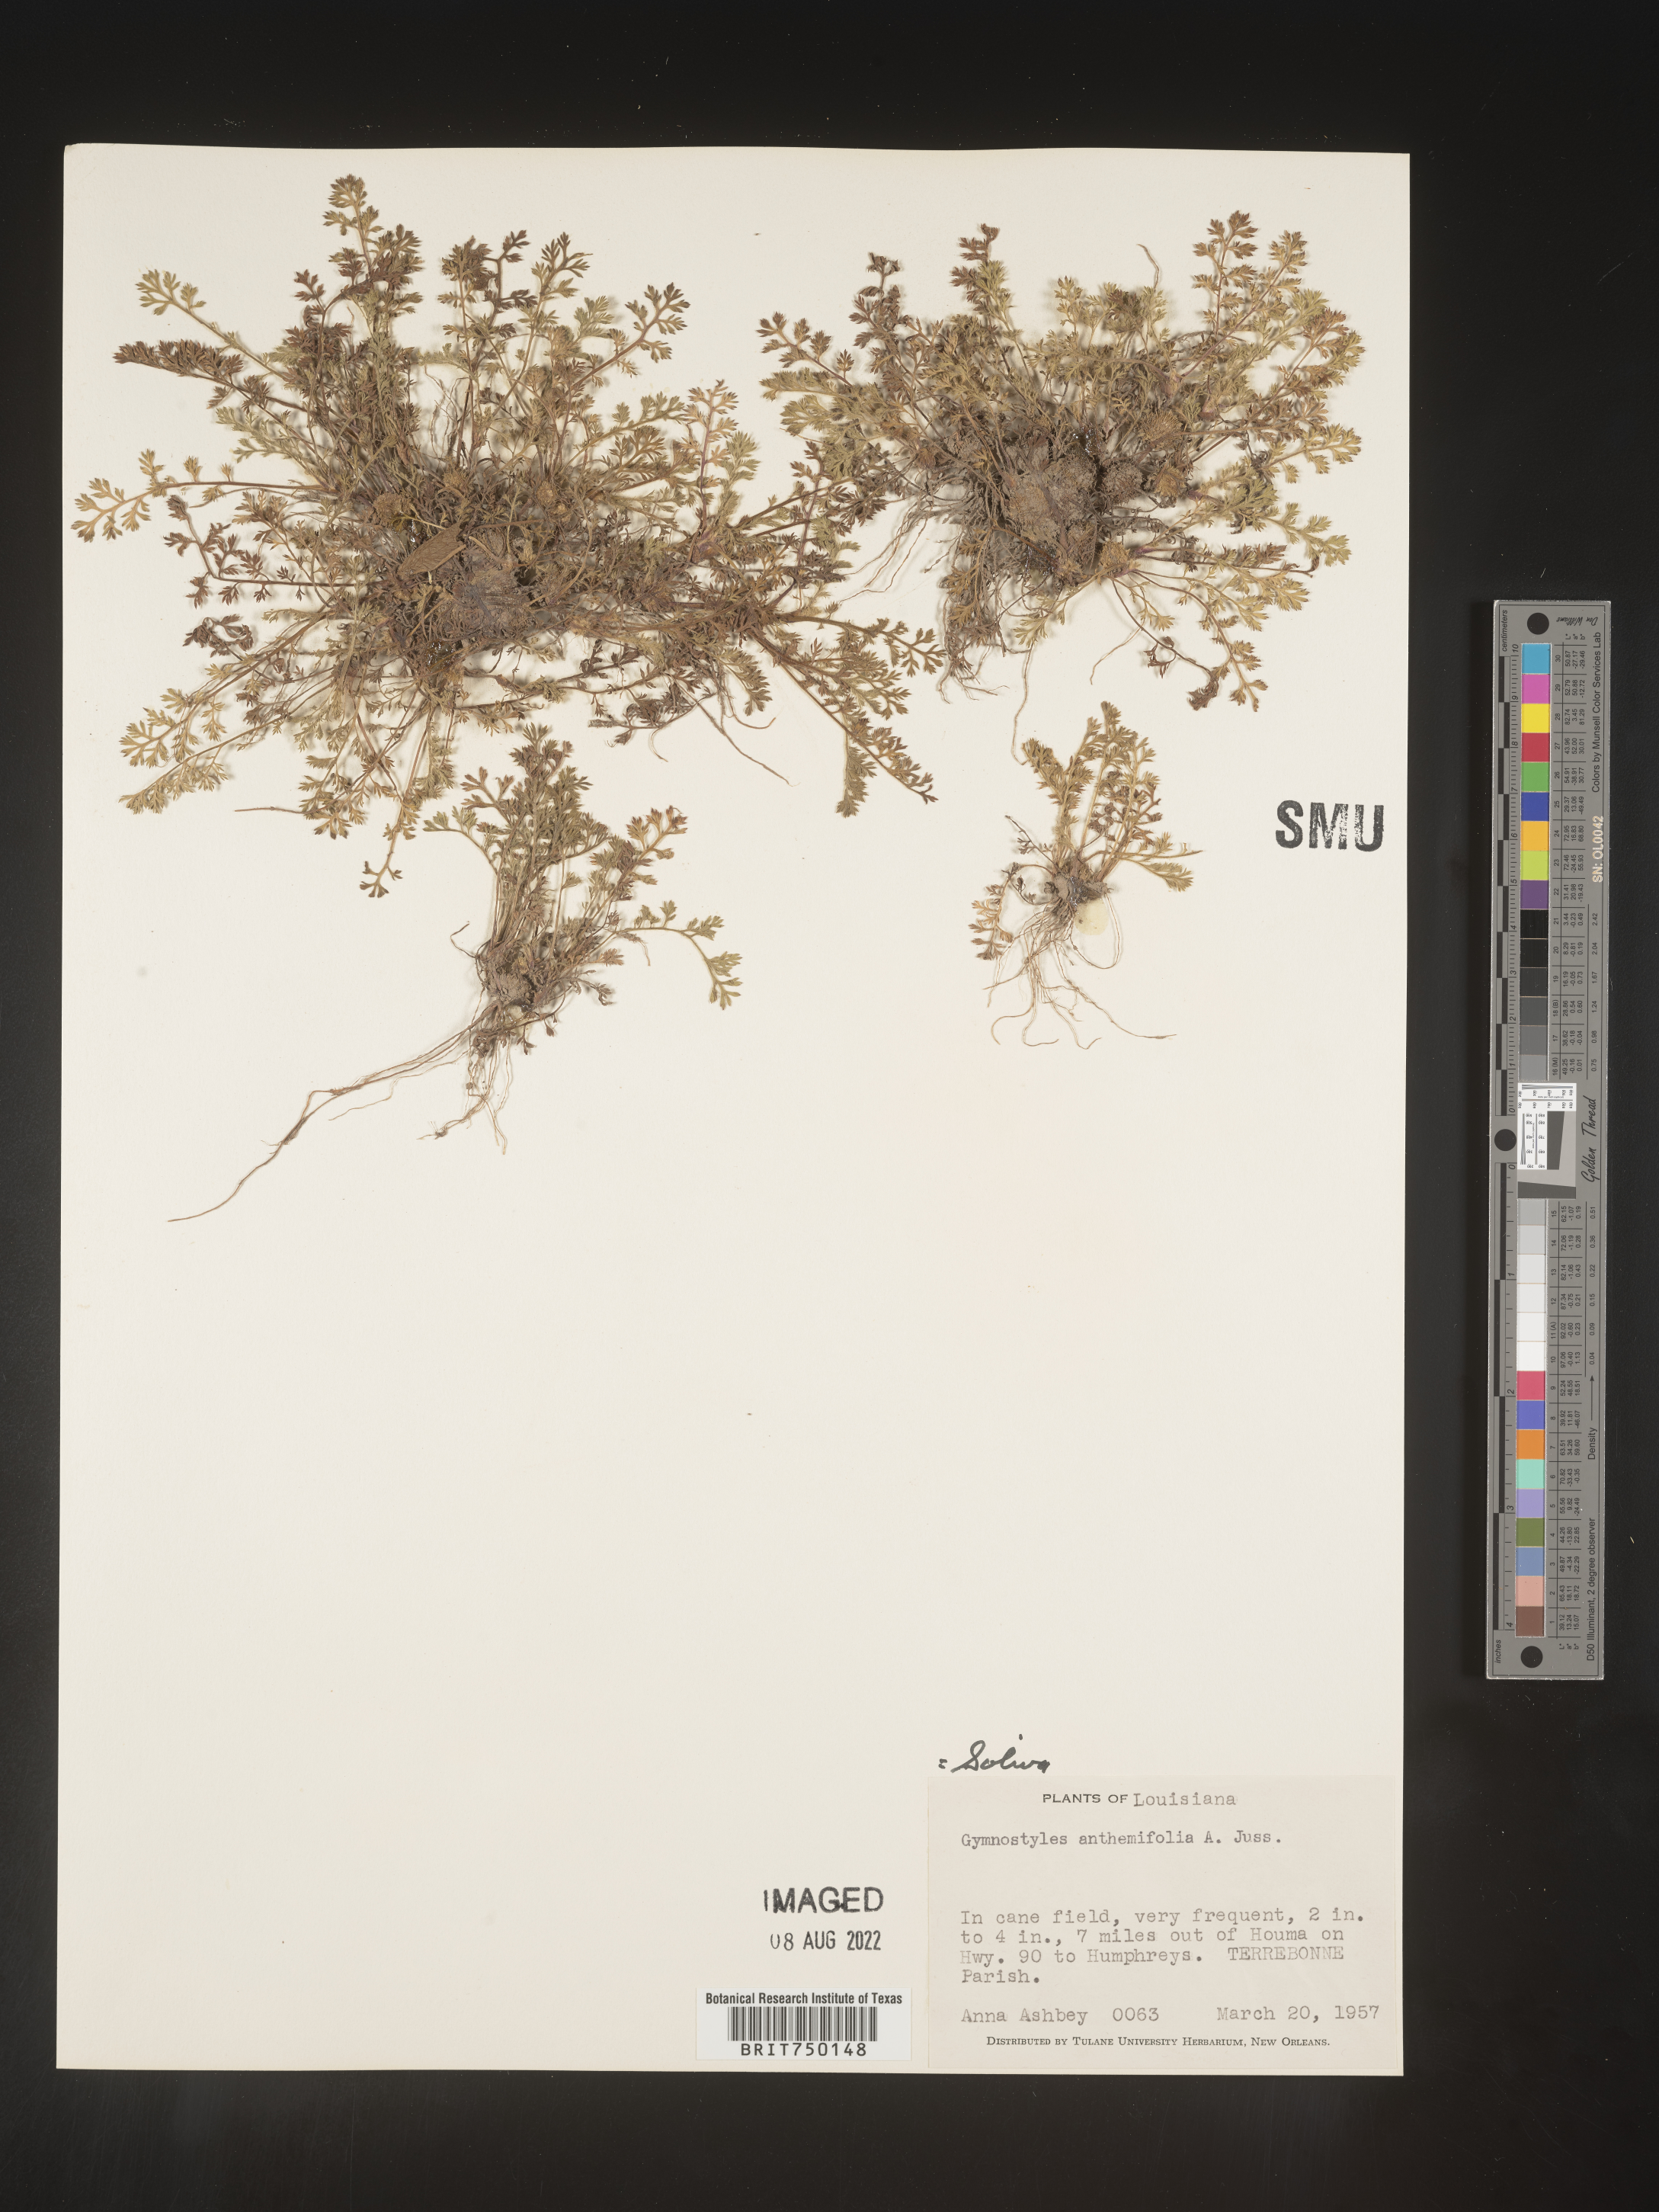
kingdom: Plantae
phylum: Tracheophyta
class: Magnoliopsida
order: Asterales
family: Asteraceae
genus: Soliva
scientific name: Soliva
